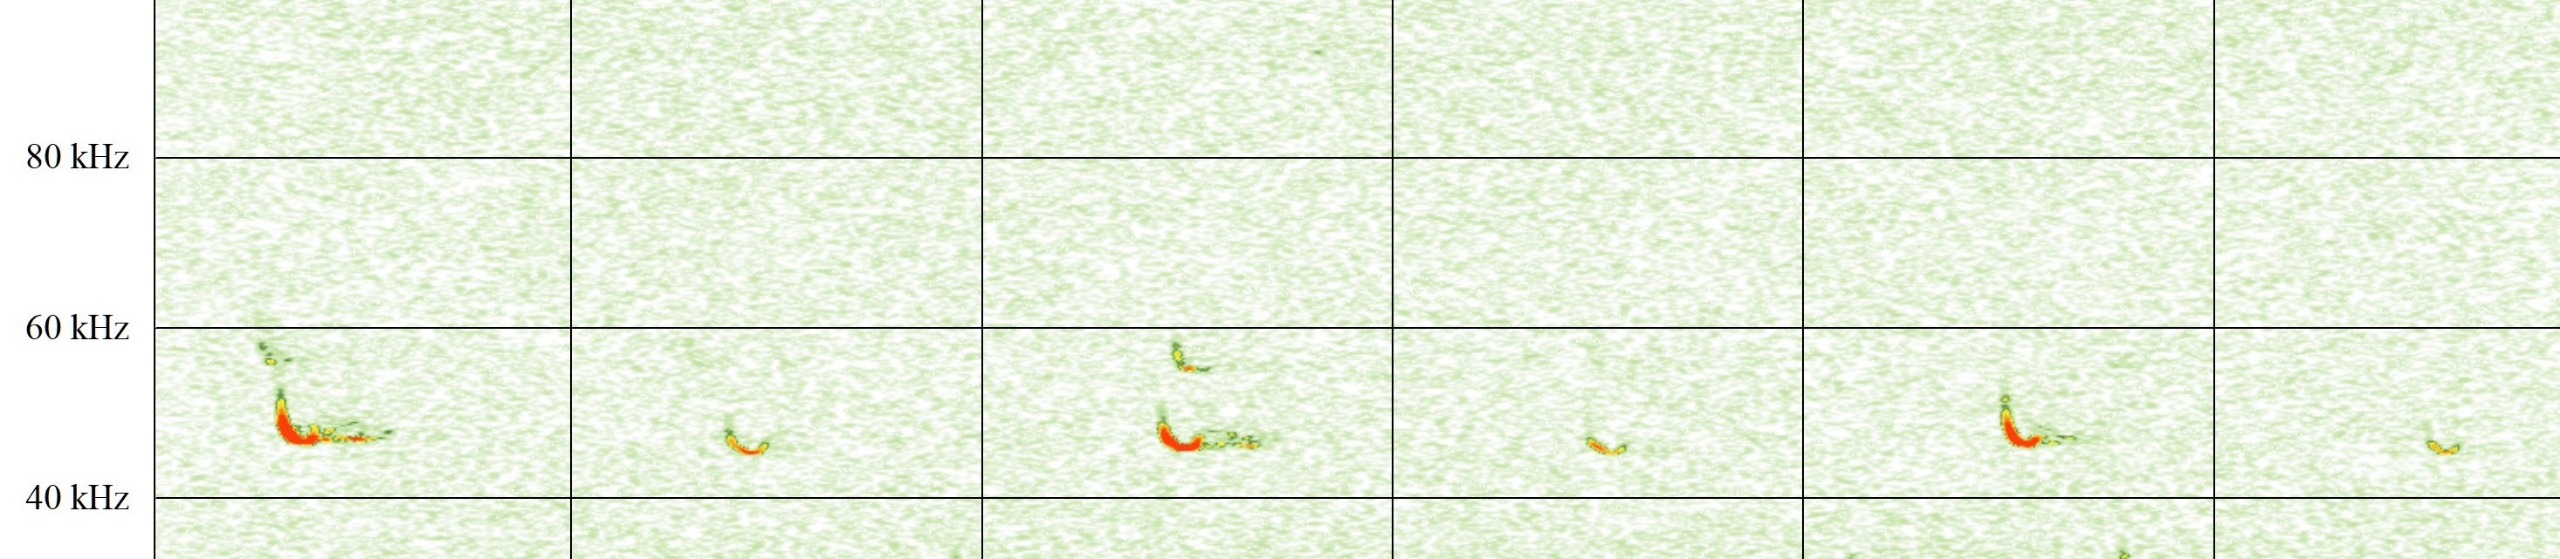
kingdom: Animalia
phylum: Chordata
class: Mammalia
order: Chiroptera
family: Vespertilionidae
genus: Pipistrellus
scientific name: Pipistrellus pipistrellus
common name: Pipistrelflagermus
